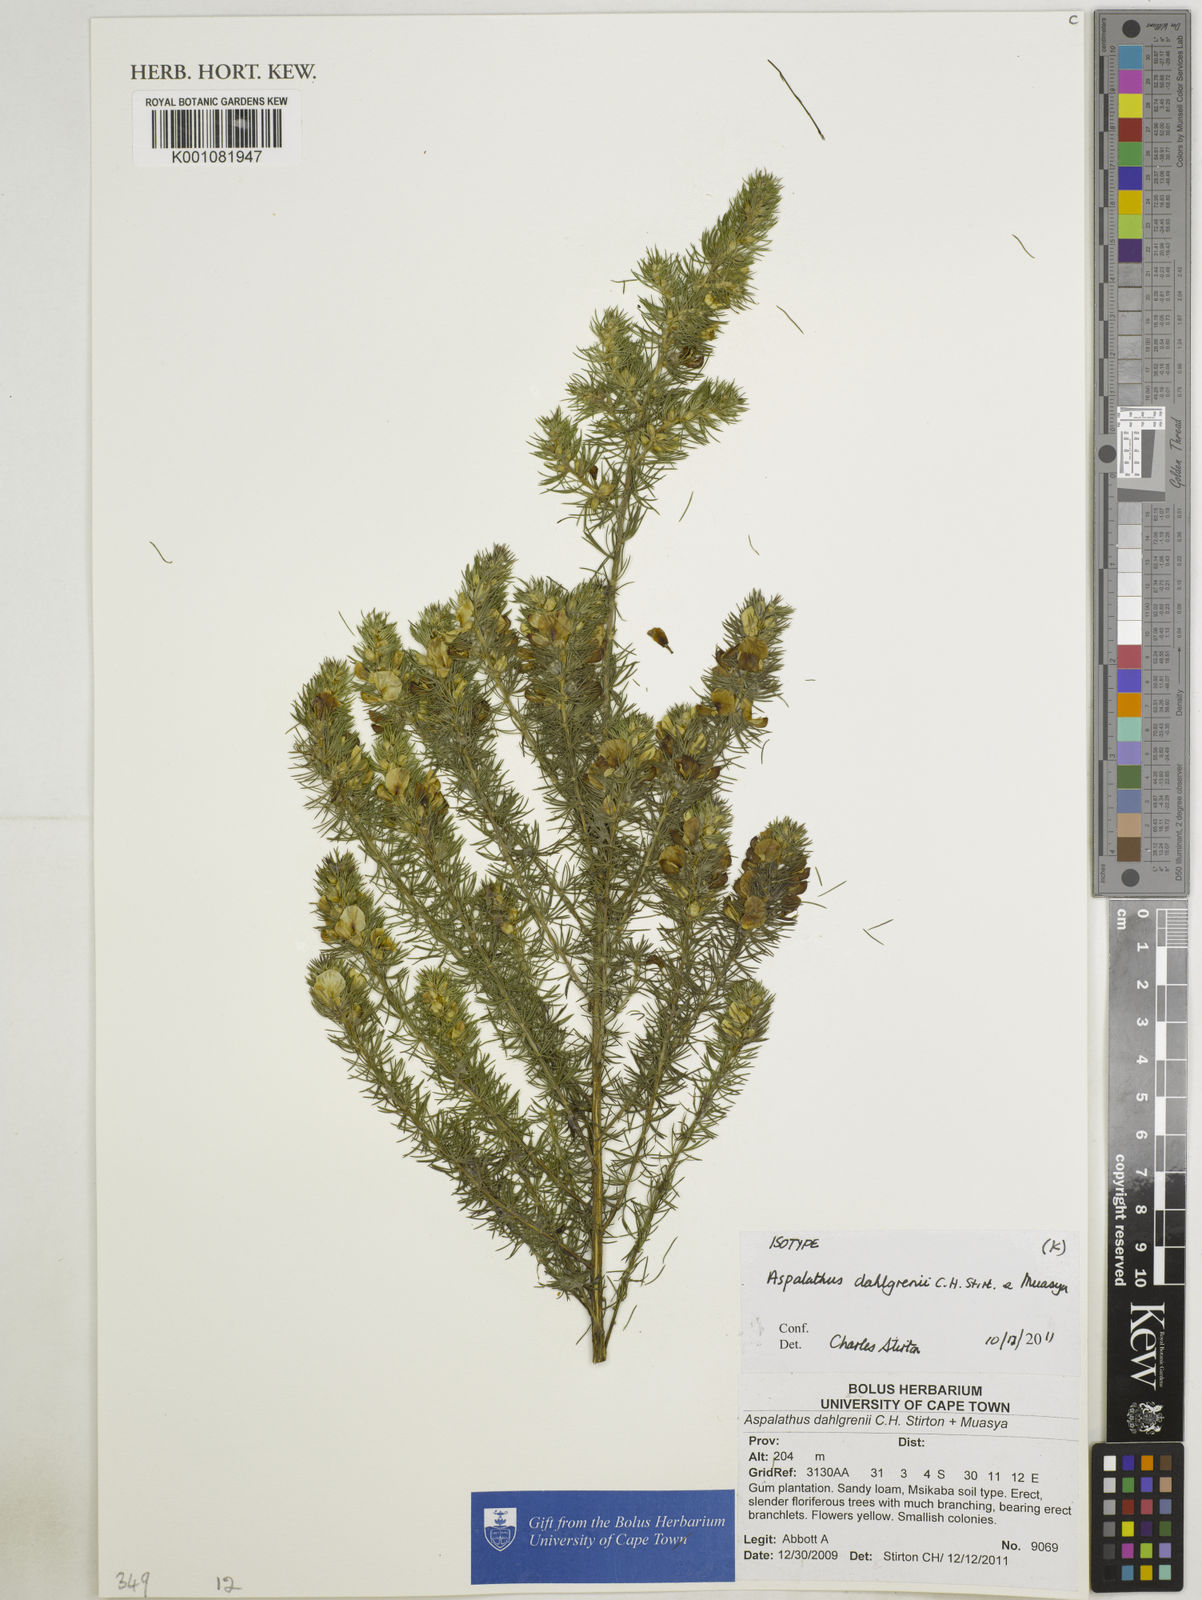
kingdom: Plantae
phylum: Tracheophyta
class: Magnoliopsida
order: Fabales
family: Fabaceae
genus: Aspalathus
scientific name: Aspalathus dahlgrenii
